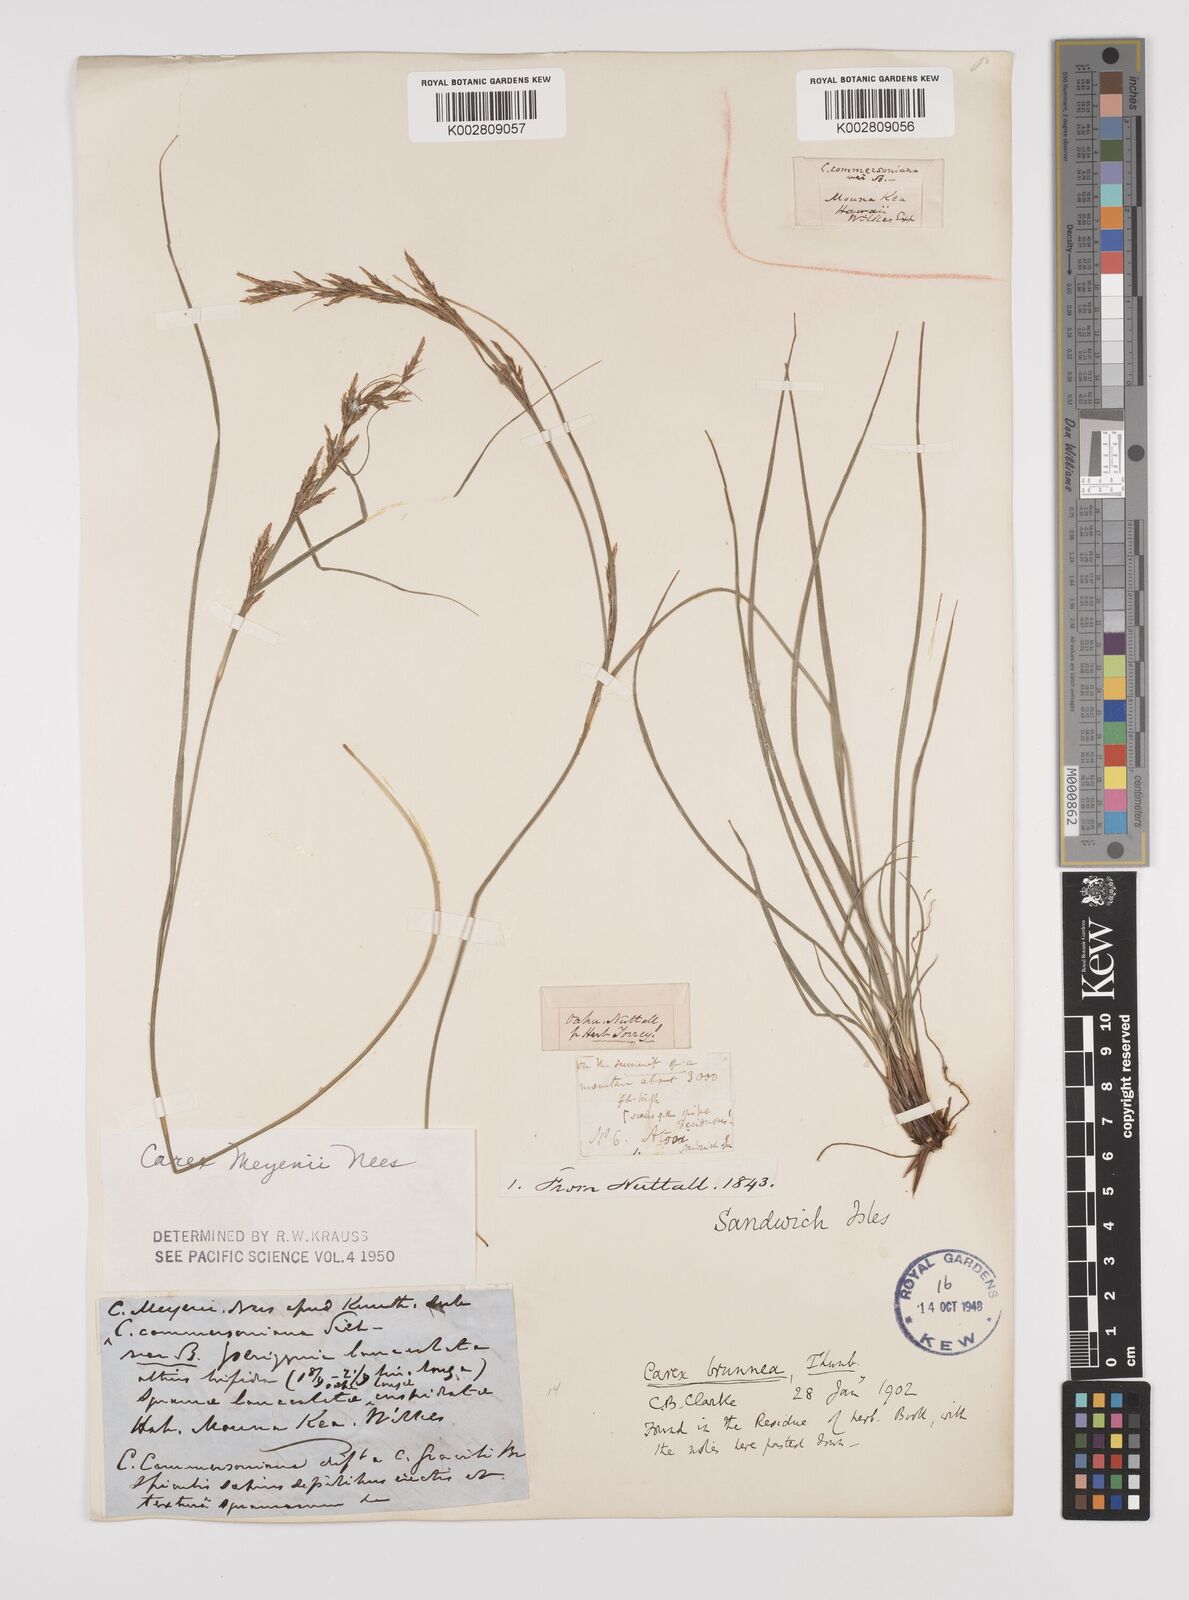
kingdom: Plantae
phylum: Tracheophyta
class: Liliopsida
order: Poales
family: Cyperaceae
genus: Carex
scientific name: Carex brunnea
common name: Greater brown sedge
